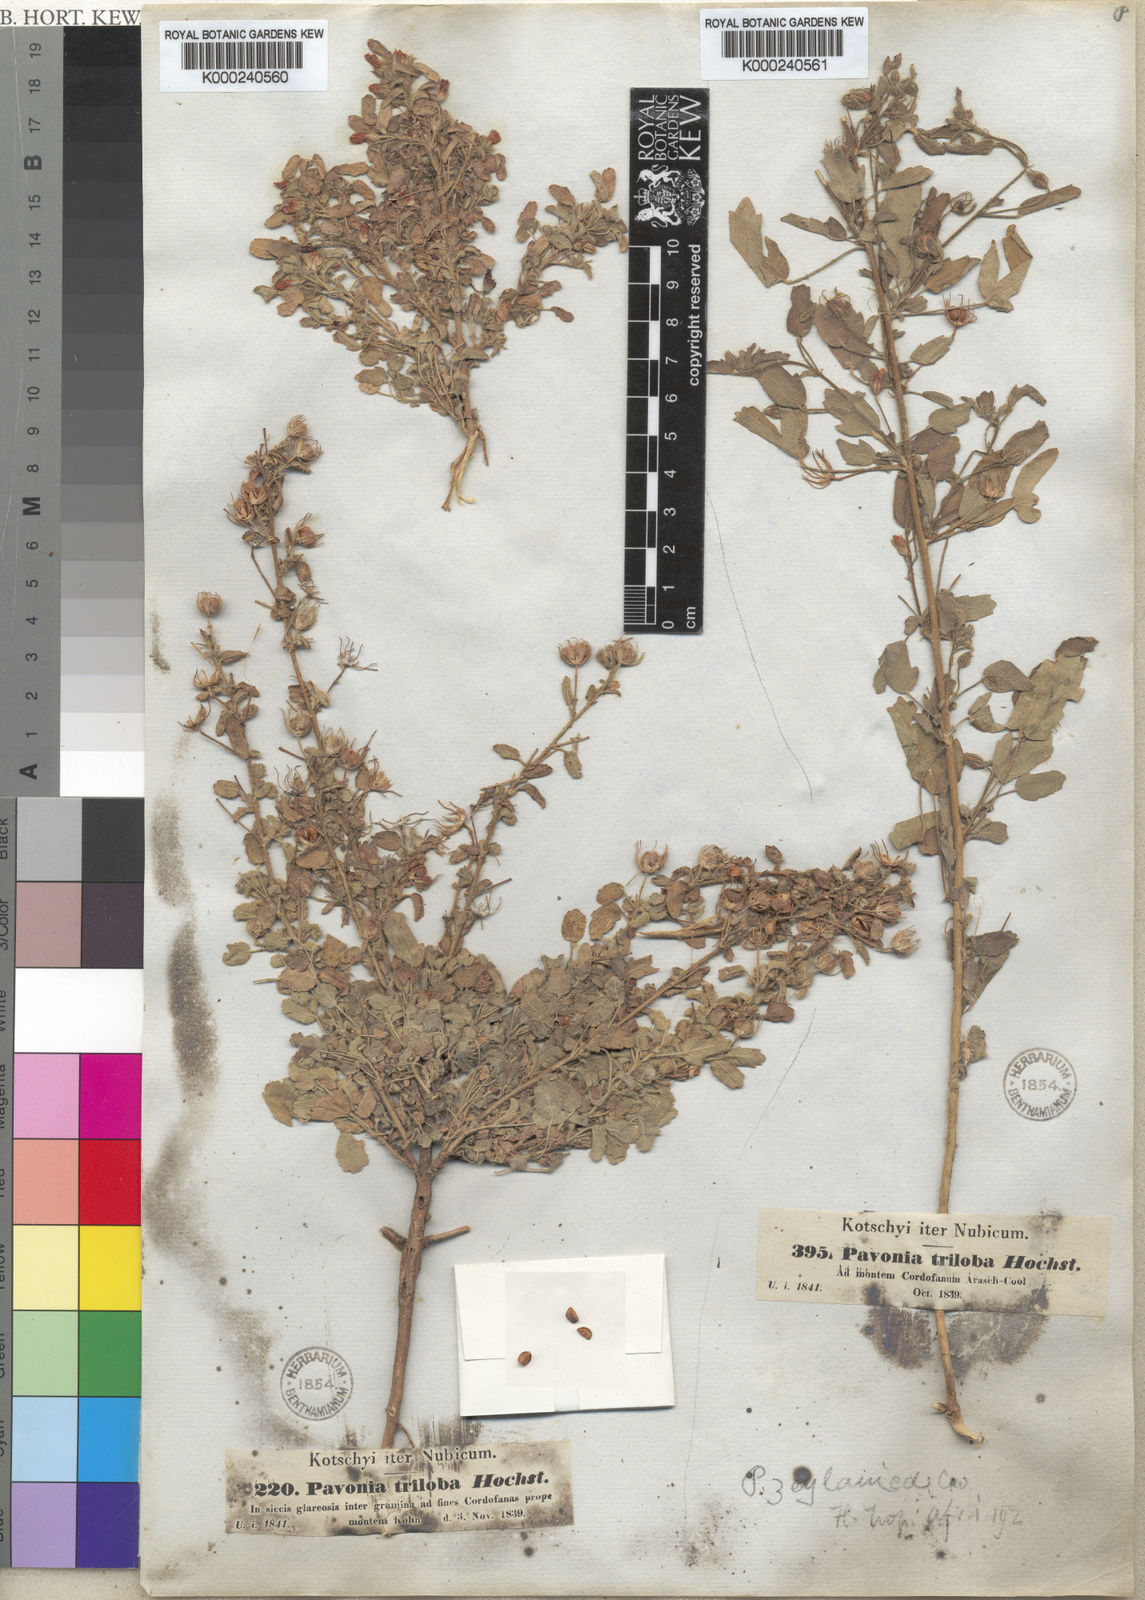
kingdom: Plantae
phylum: Tracheophyta
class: Magnoliopsida
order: Malvales
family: Malvaceae
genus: Pavonia
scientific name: Pavonia
